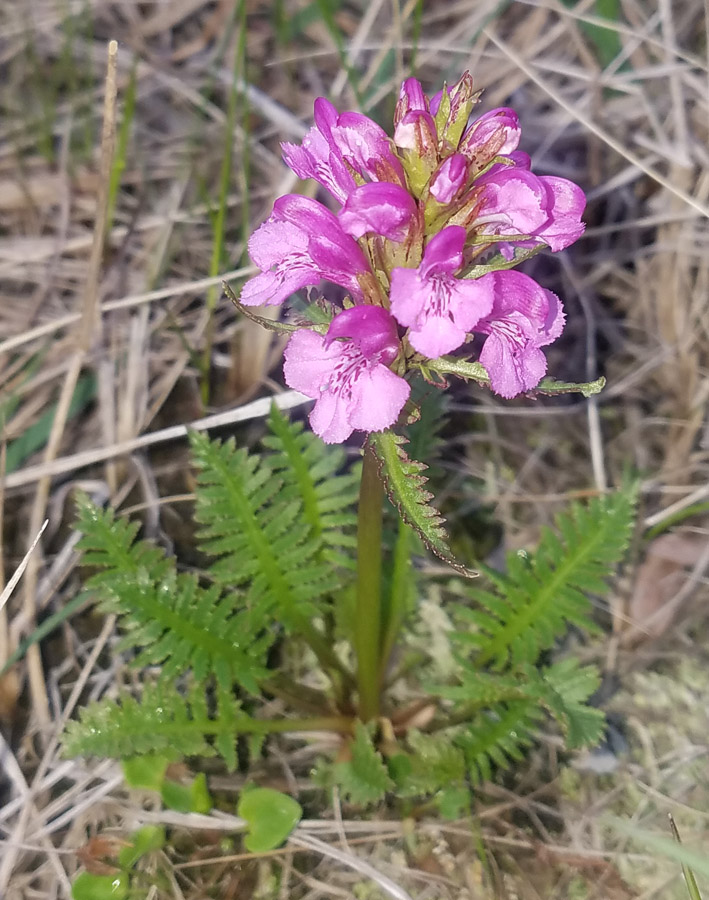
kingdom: Plantae
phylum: Tracheophyta
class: Magnoliopsida
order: Lamiales
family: Orobanchaceae
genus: Pedicularis
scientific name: Pedicularis arctoeuropaea
